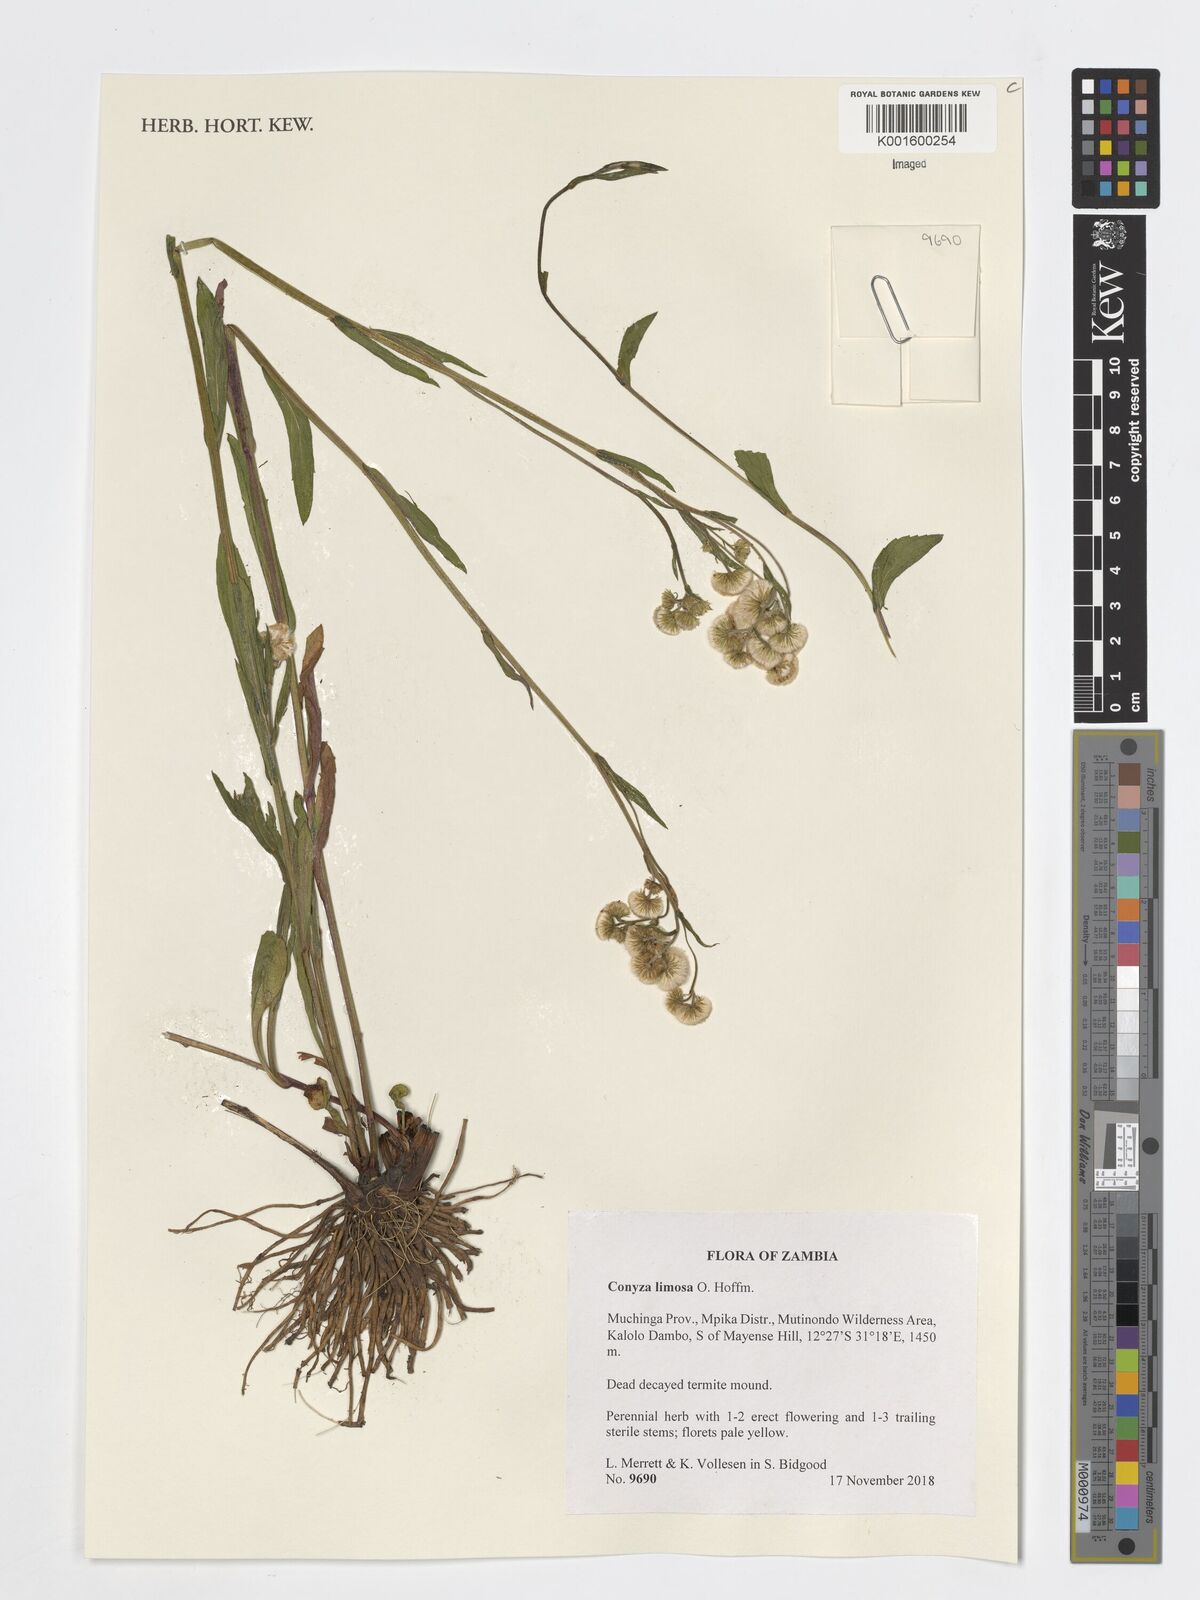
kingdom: Plantae
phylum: Tracheophyta
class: Magnoliopsida
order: Asterales
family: Asteraceae
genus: Conyza
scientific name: Conyza limosa
